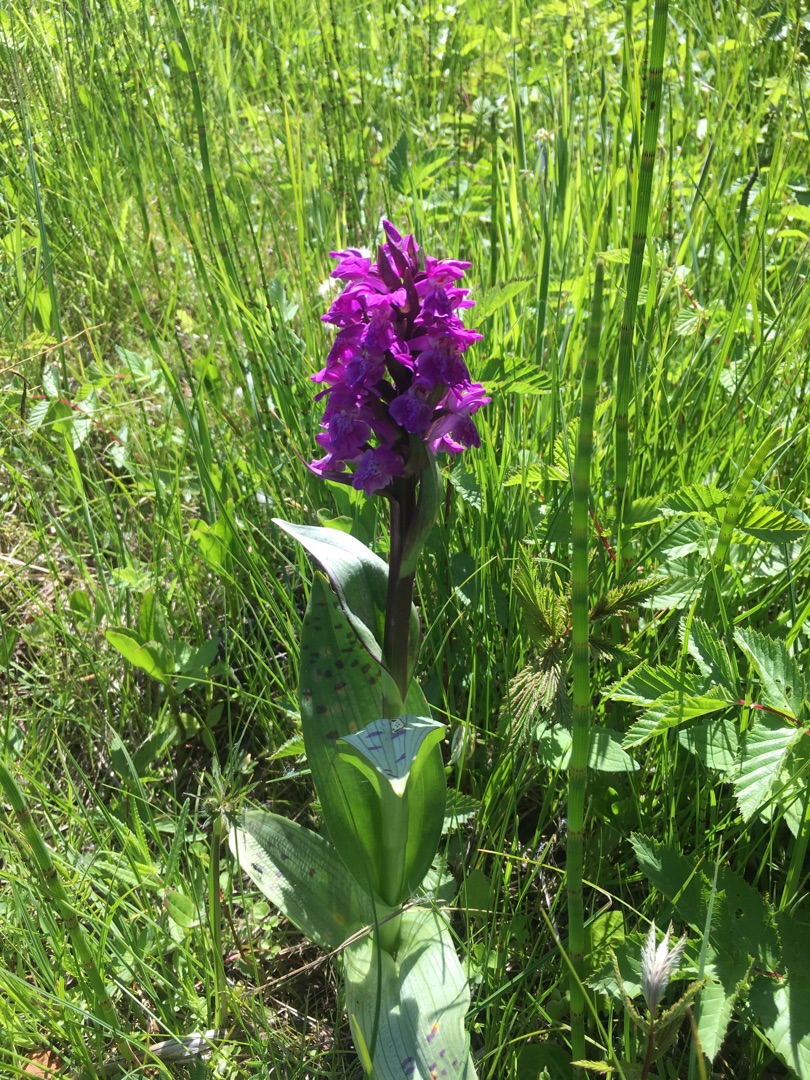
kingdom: Plantae
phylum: Tracheophyta
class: Liliopsida
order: Asparagales
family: Orchidaceae
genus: Dactylorhiza
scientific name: Dactylorhiza majalis
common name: Maj-gøgeurt
